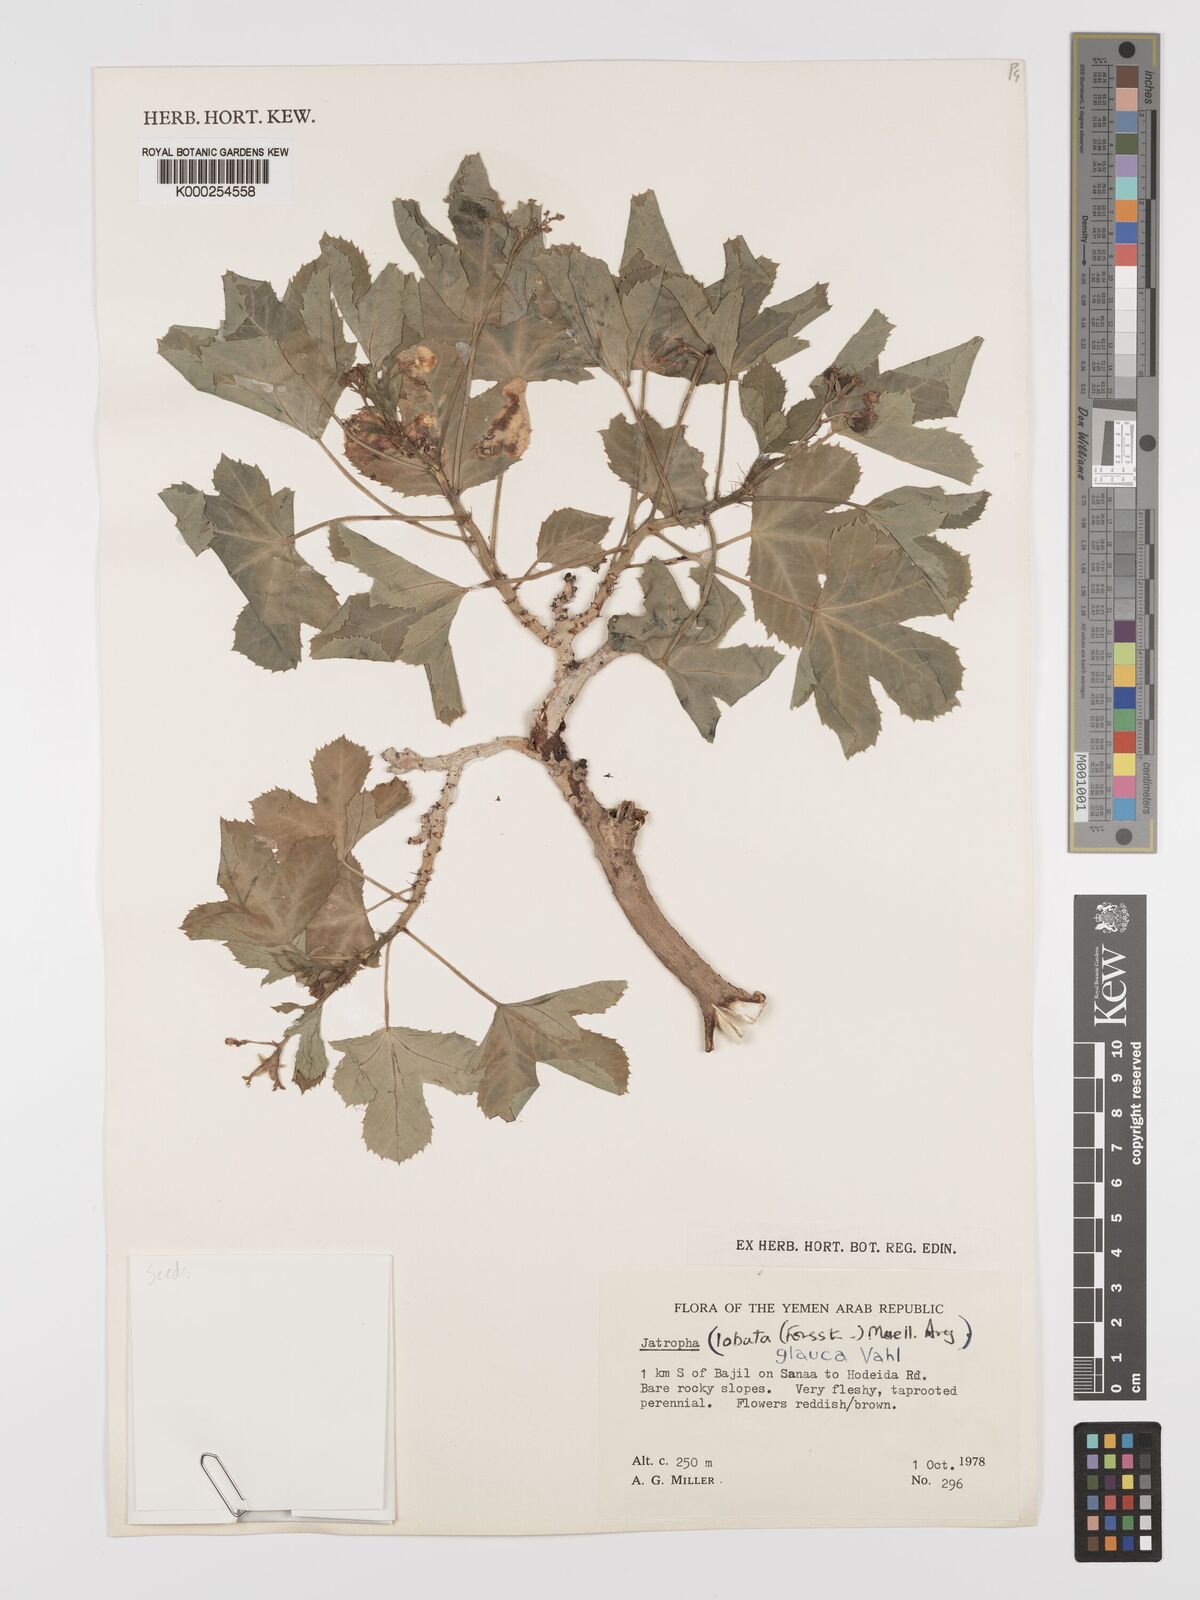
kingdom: Plantae
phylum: Tracheophyta
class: Magnoliopsida
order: Malpighiales
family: Euphorbiaceae
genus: Jatropha
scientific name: Jatropha glauca
